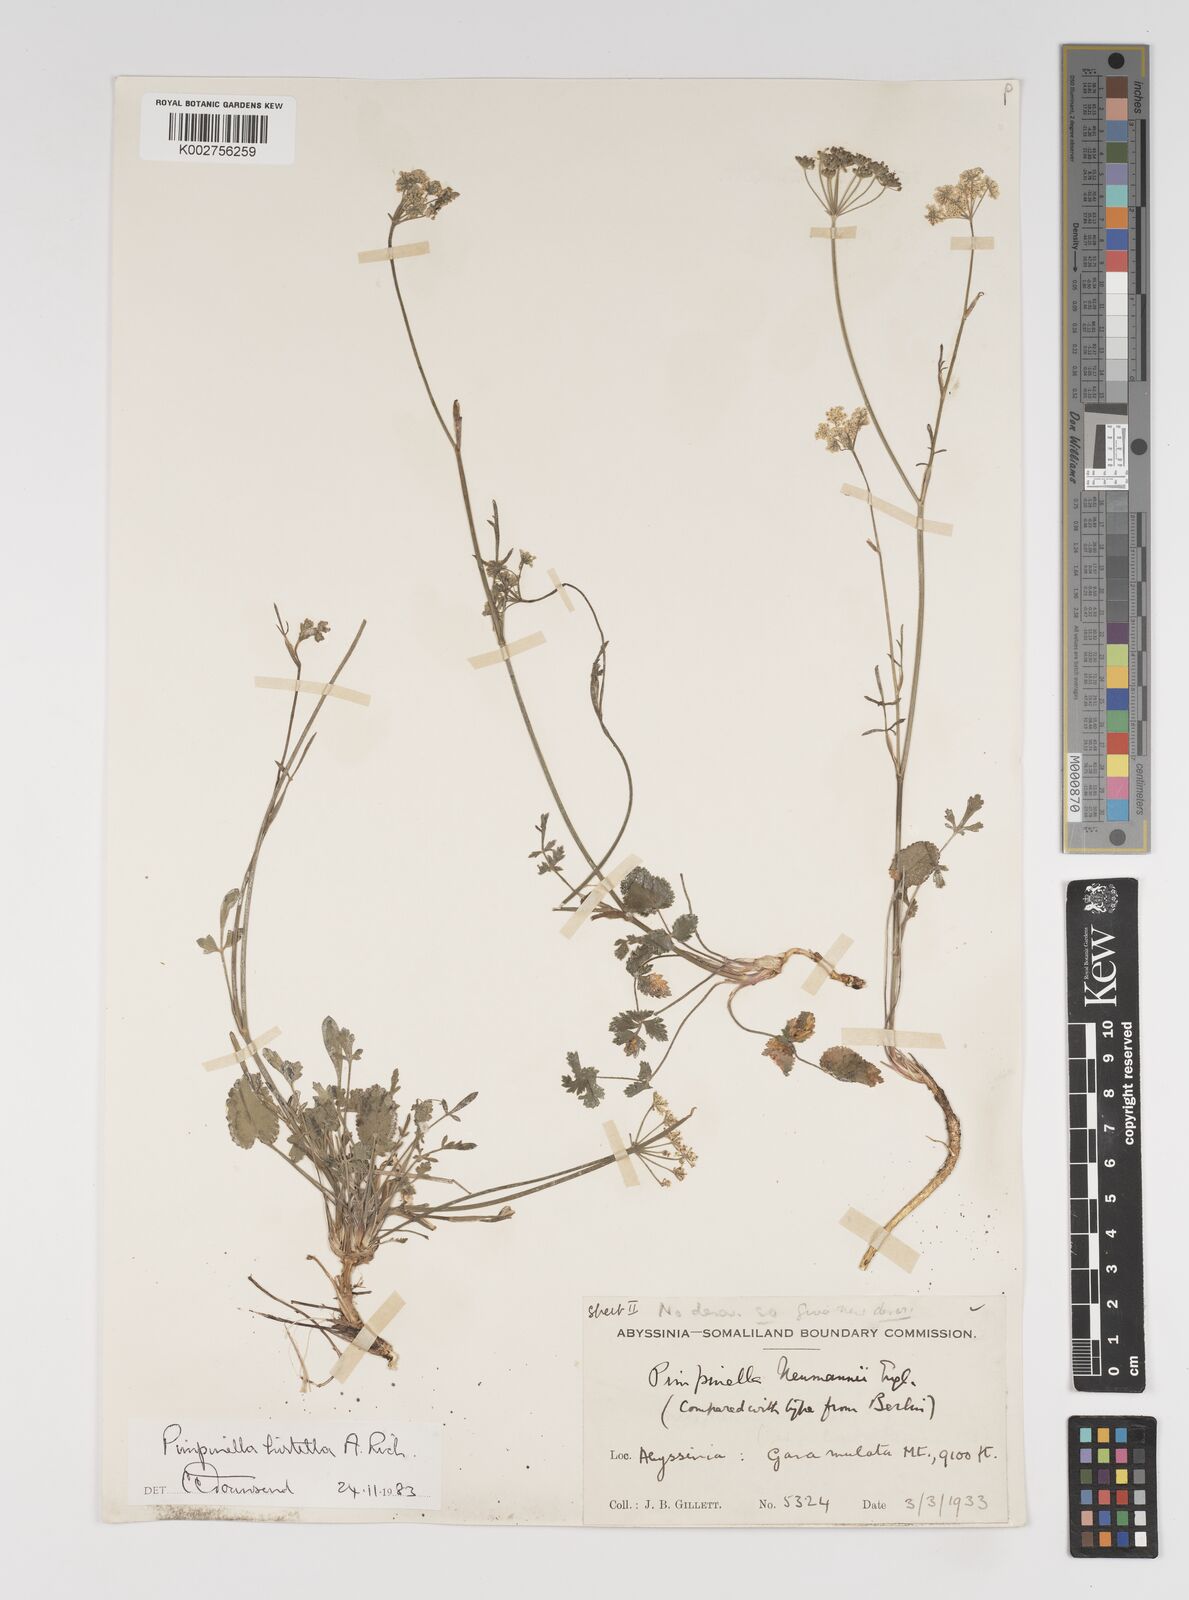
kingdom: Plantae
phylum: Tracheophyta
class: Magnoliopsida
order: Apiales
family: Apiaceae
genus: Pimpinella
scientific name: Pimpinella hirtella
